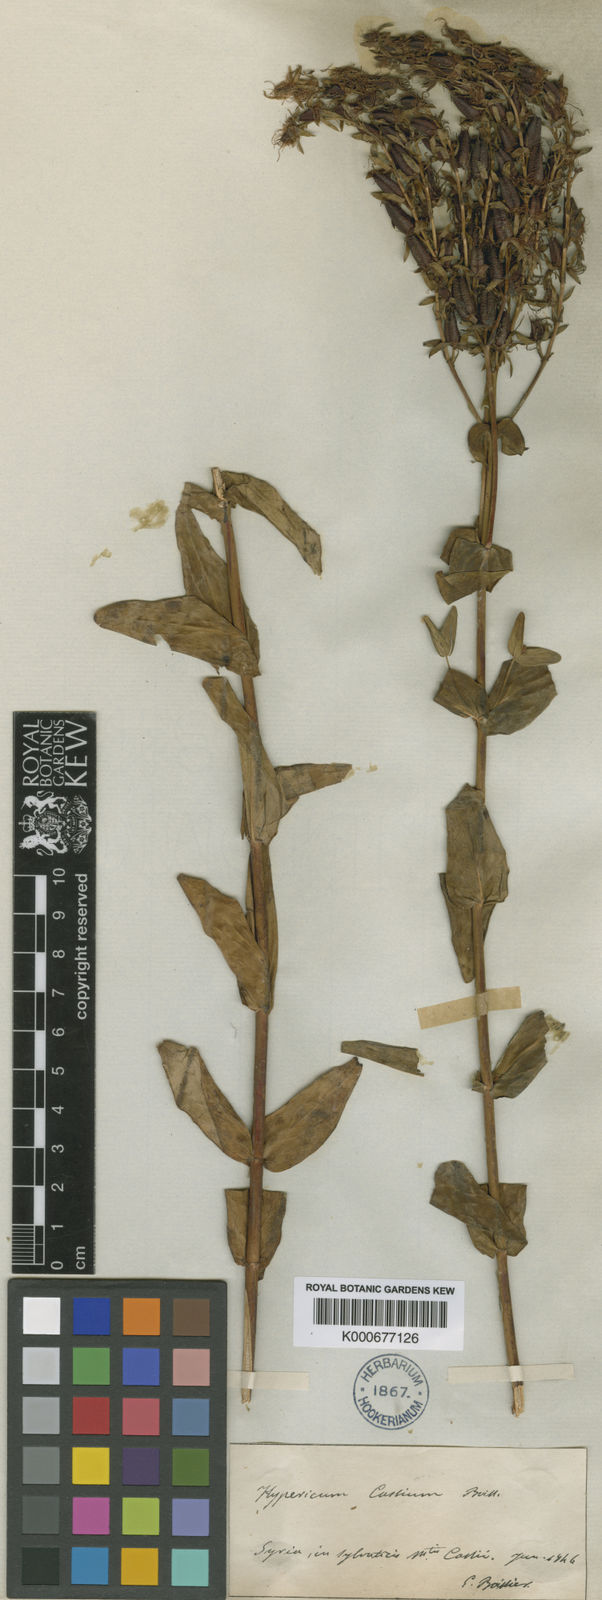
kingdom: Plantae
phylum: Tracheophyta
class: Magnoliopsida
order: Malpighiales
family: Hypericaceae
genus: Hypericum
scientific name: Hypericum montbretii
